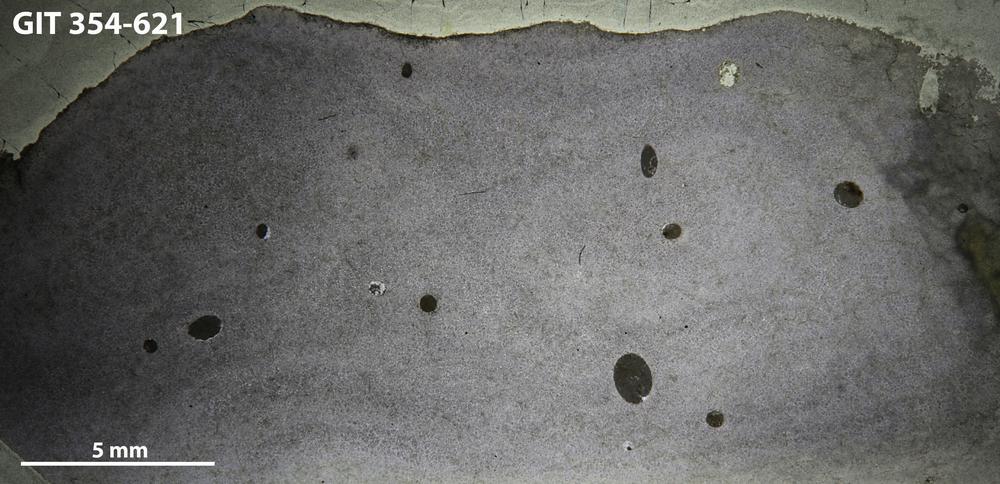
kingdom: Animalia
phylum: Porifera
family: Densastromatidae
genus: Densastroma
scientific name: Densastroma Actinostroma pexisum
